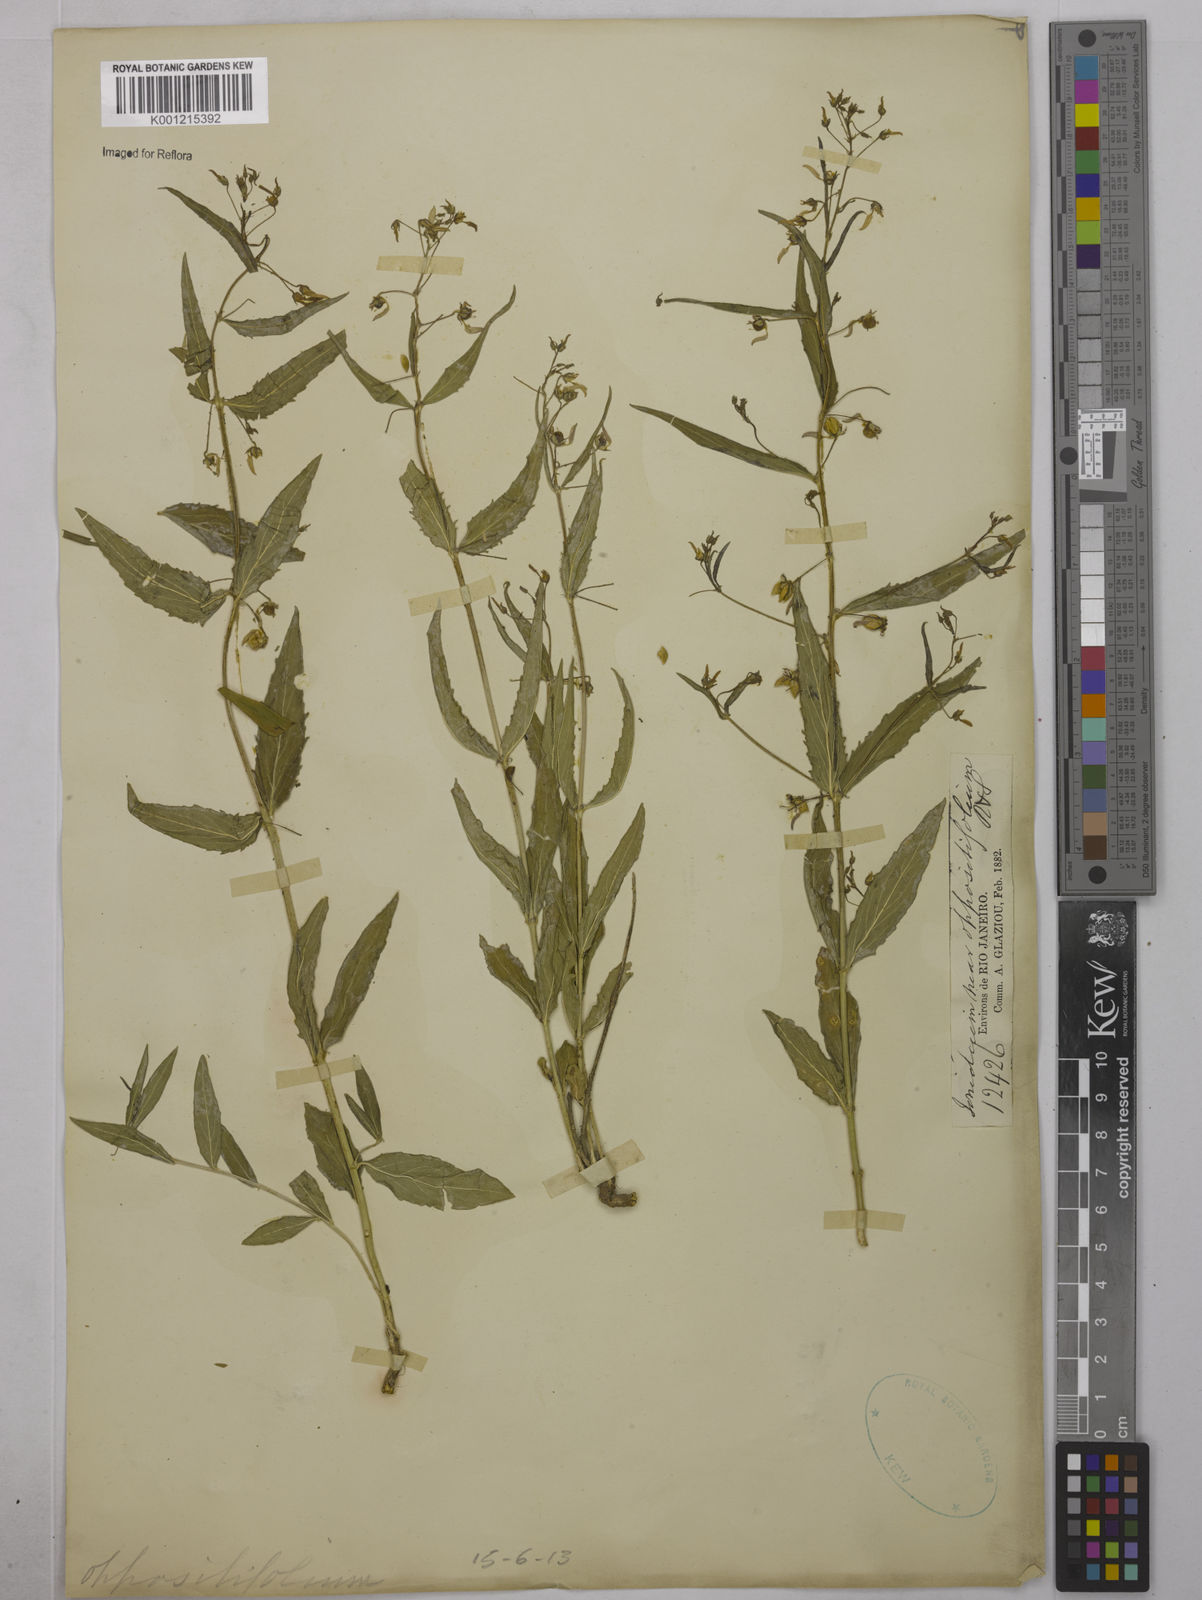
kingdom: Plantae
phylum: Tracheophyta
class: Magnoliopsida
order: Malpighiales
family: Violaceae
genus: Pombalia
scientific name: Pombalia oppositifolia
